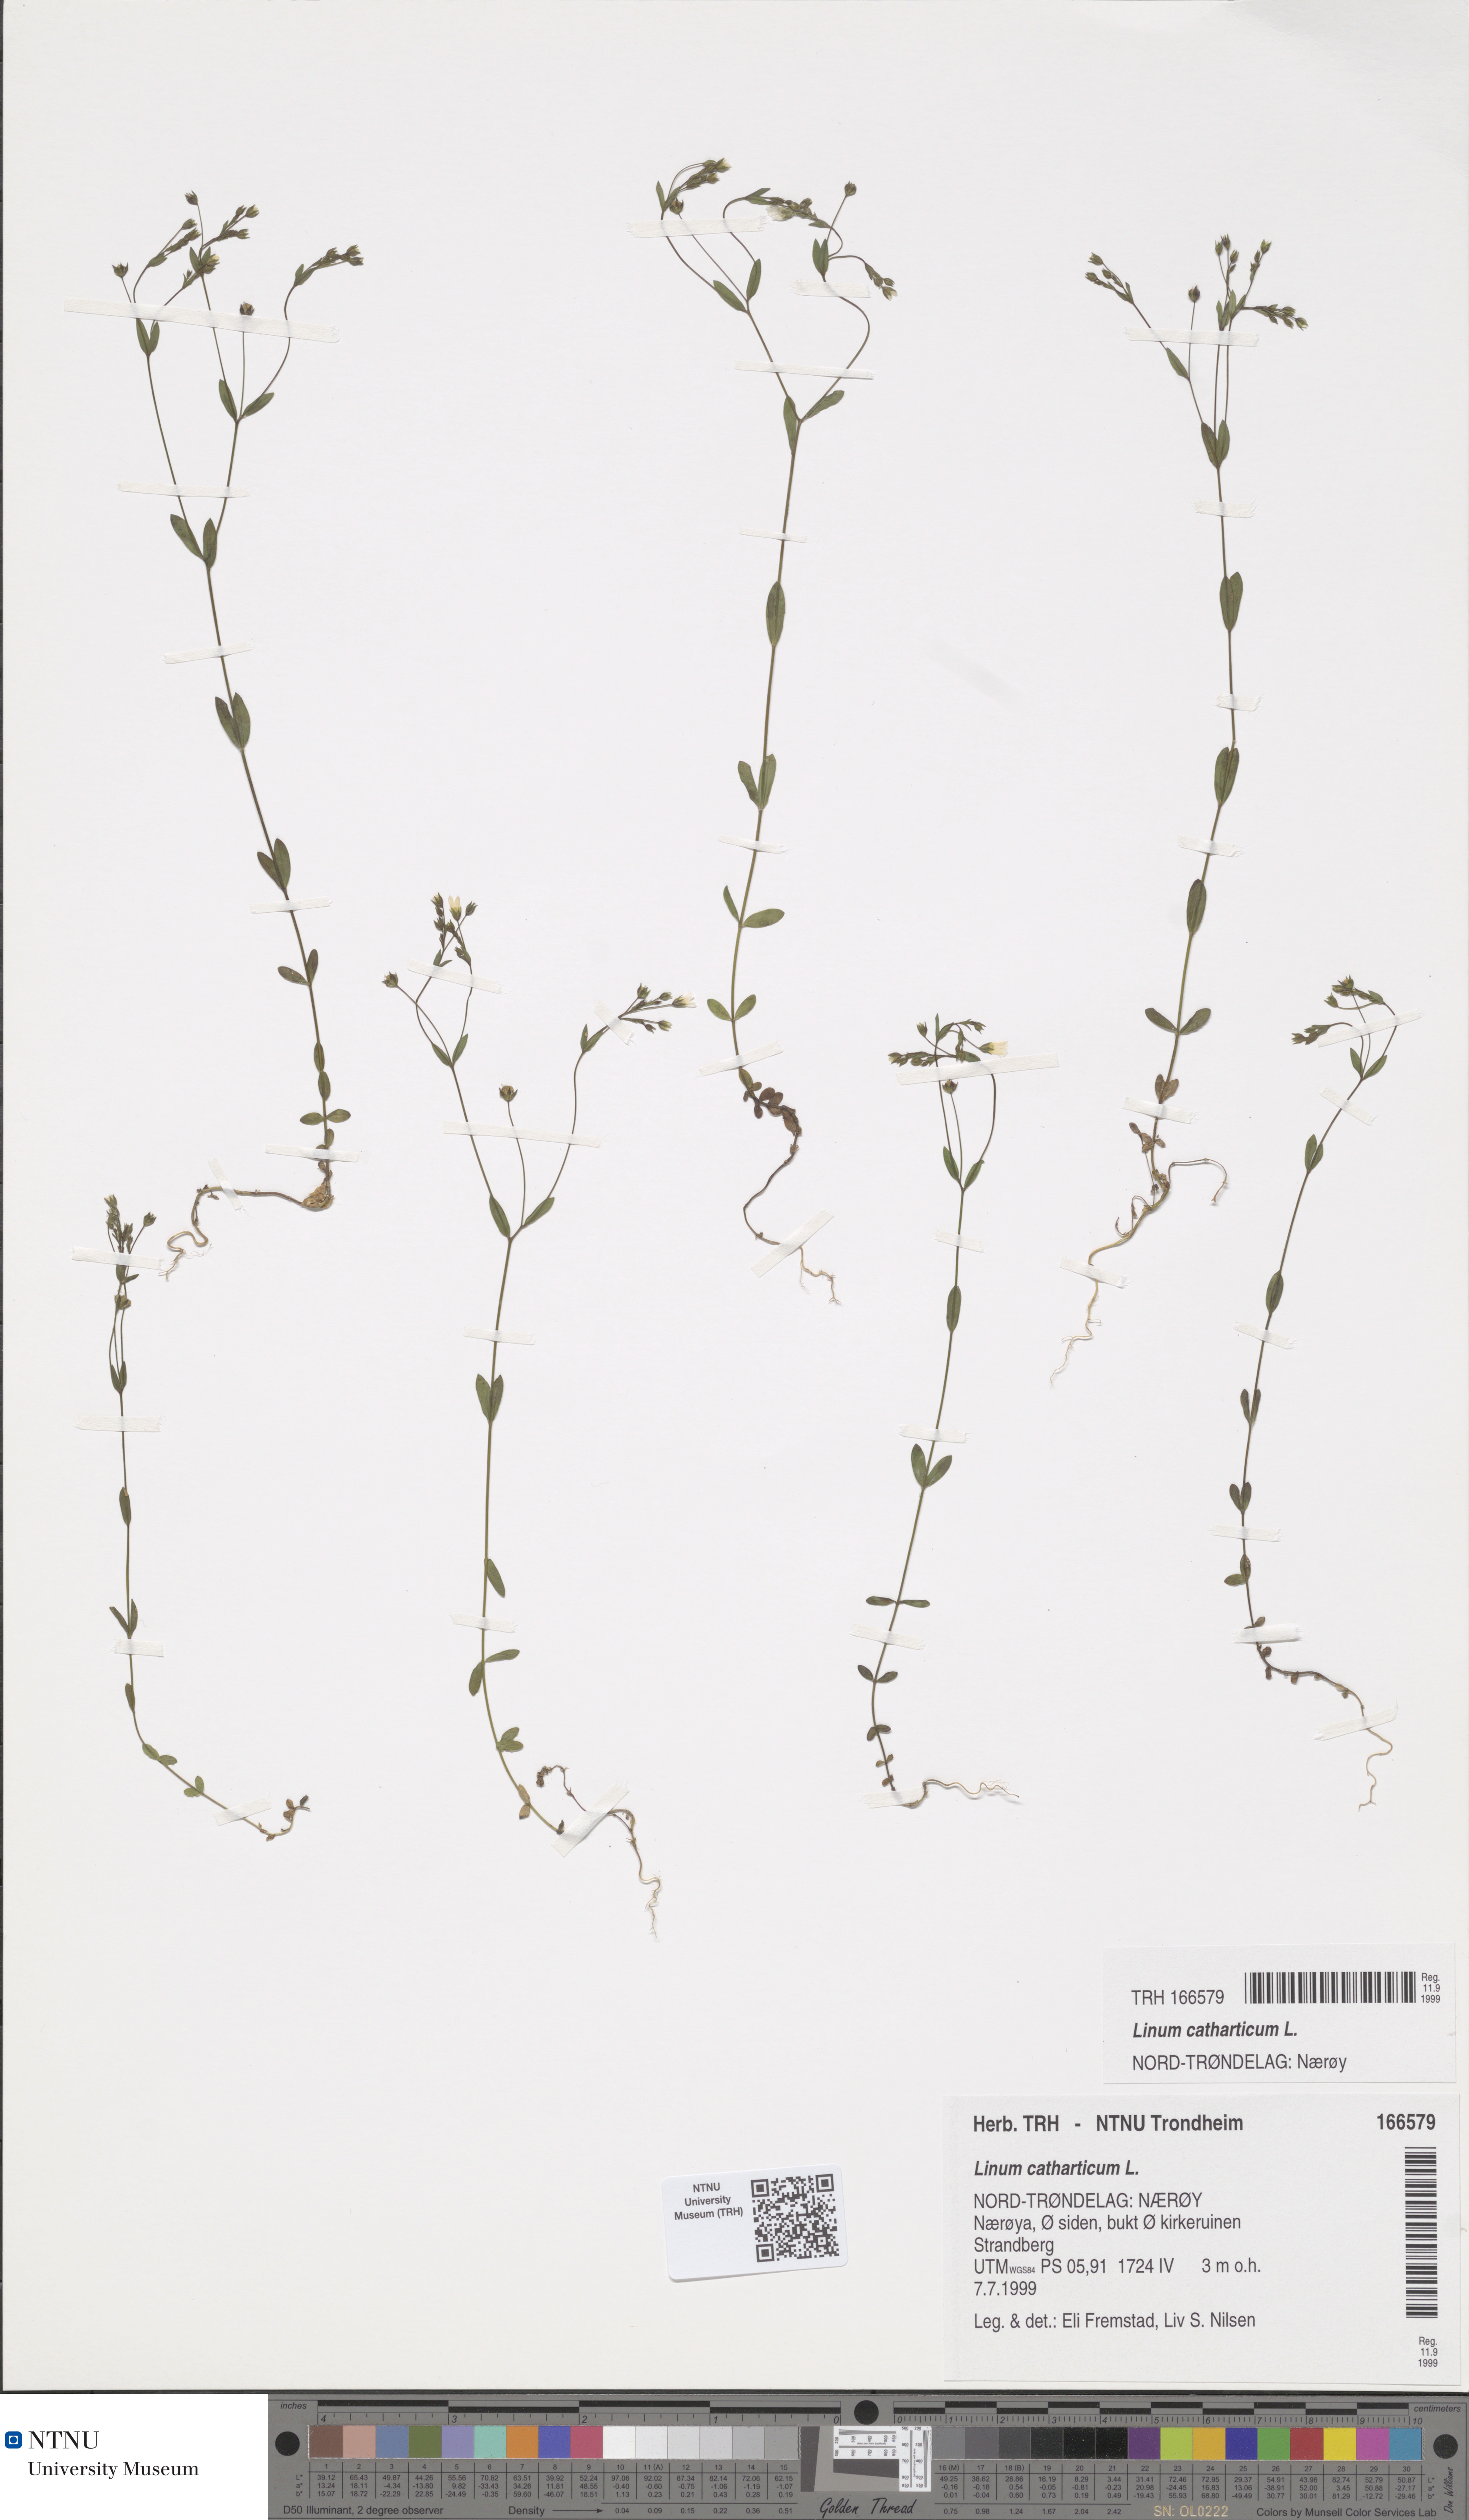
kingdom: Plantae
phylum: Tracheophyta
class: Magnoliopsida
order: Malpighiales
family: Linaceae
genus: Linum
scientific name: Linum catharticum
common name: Fairy flax
